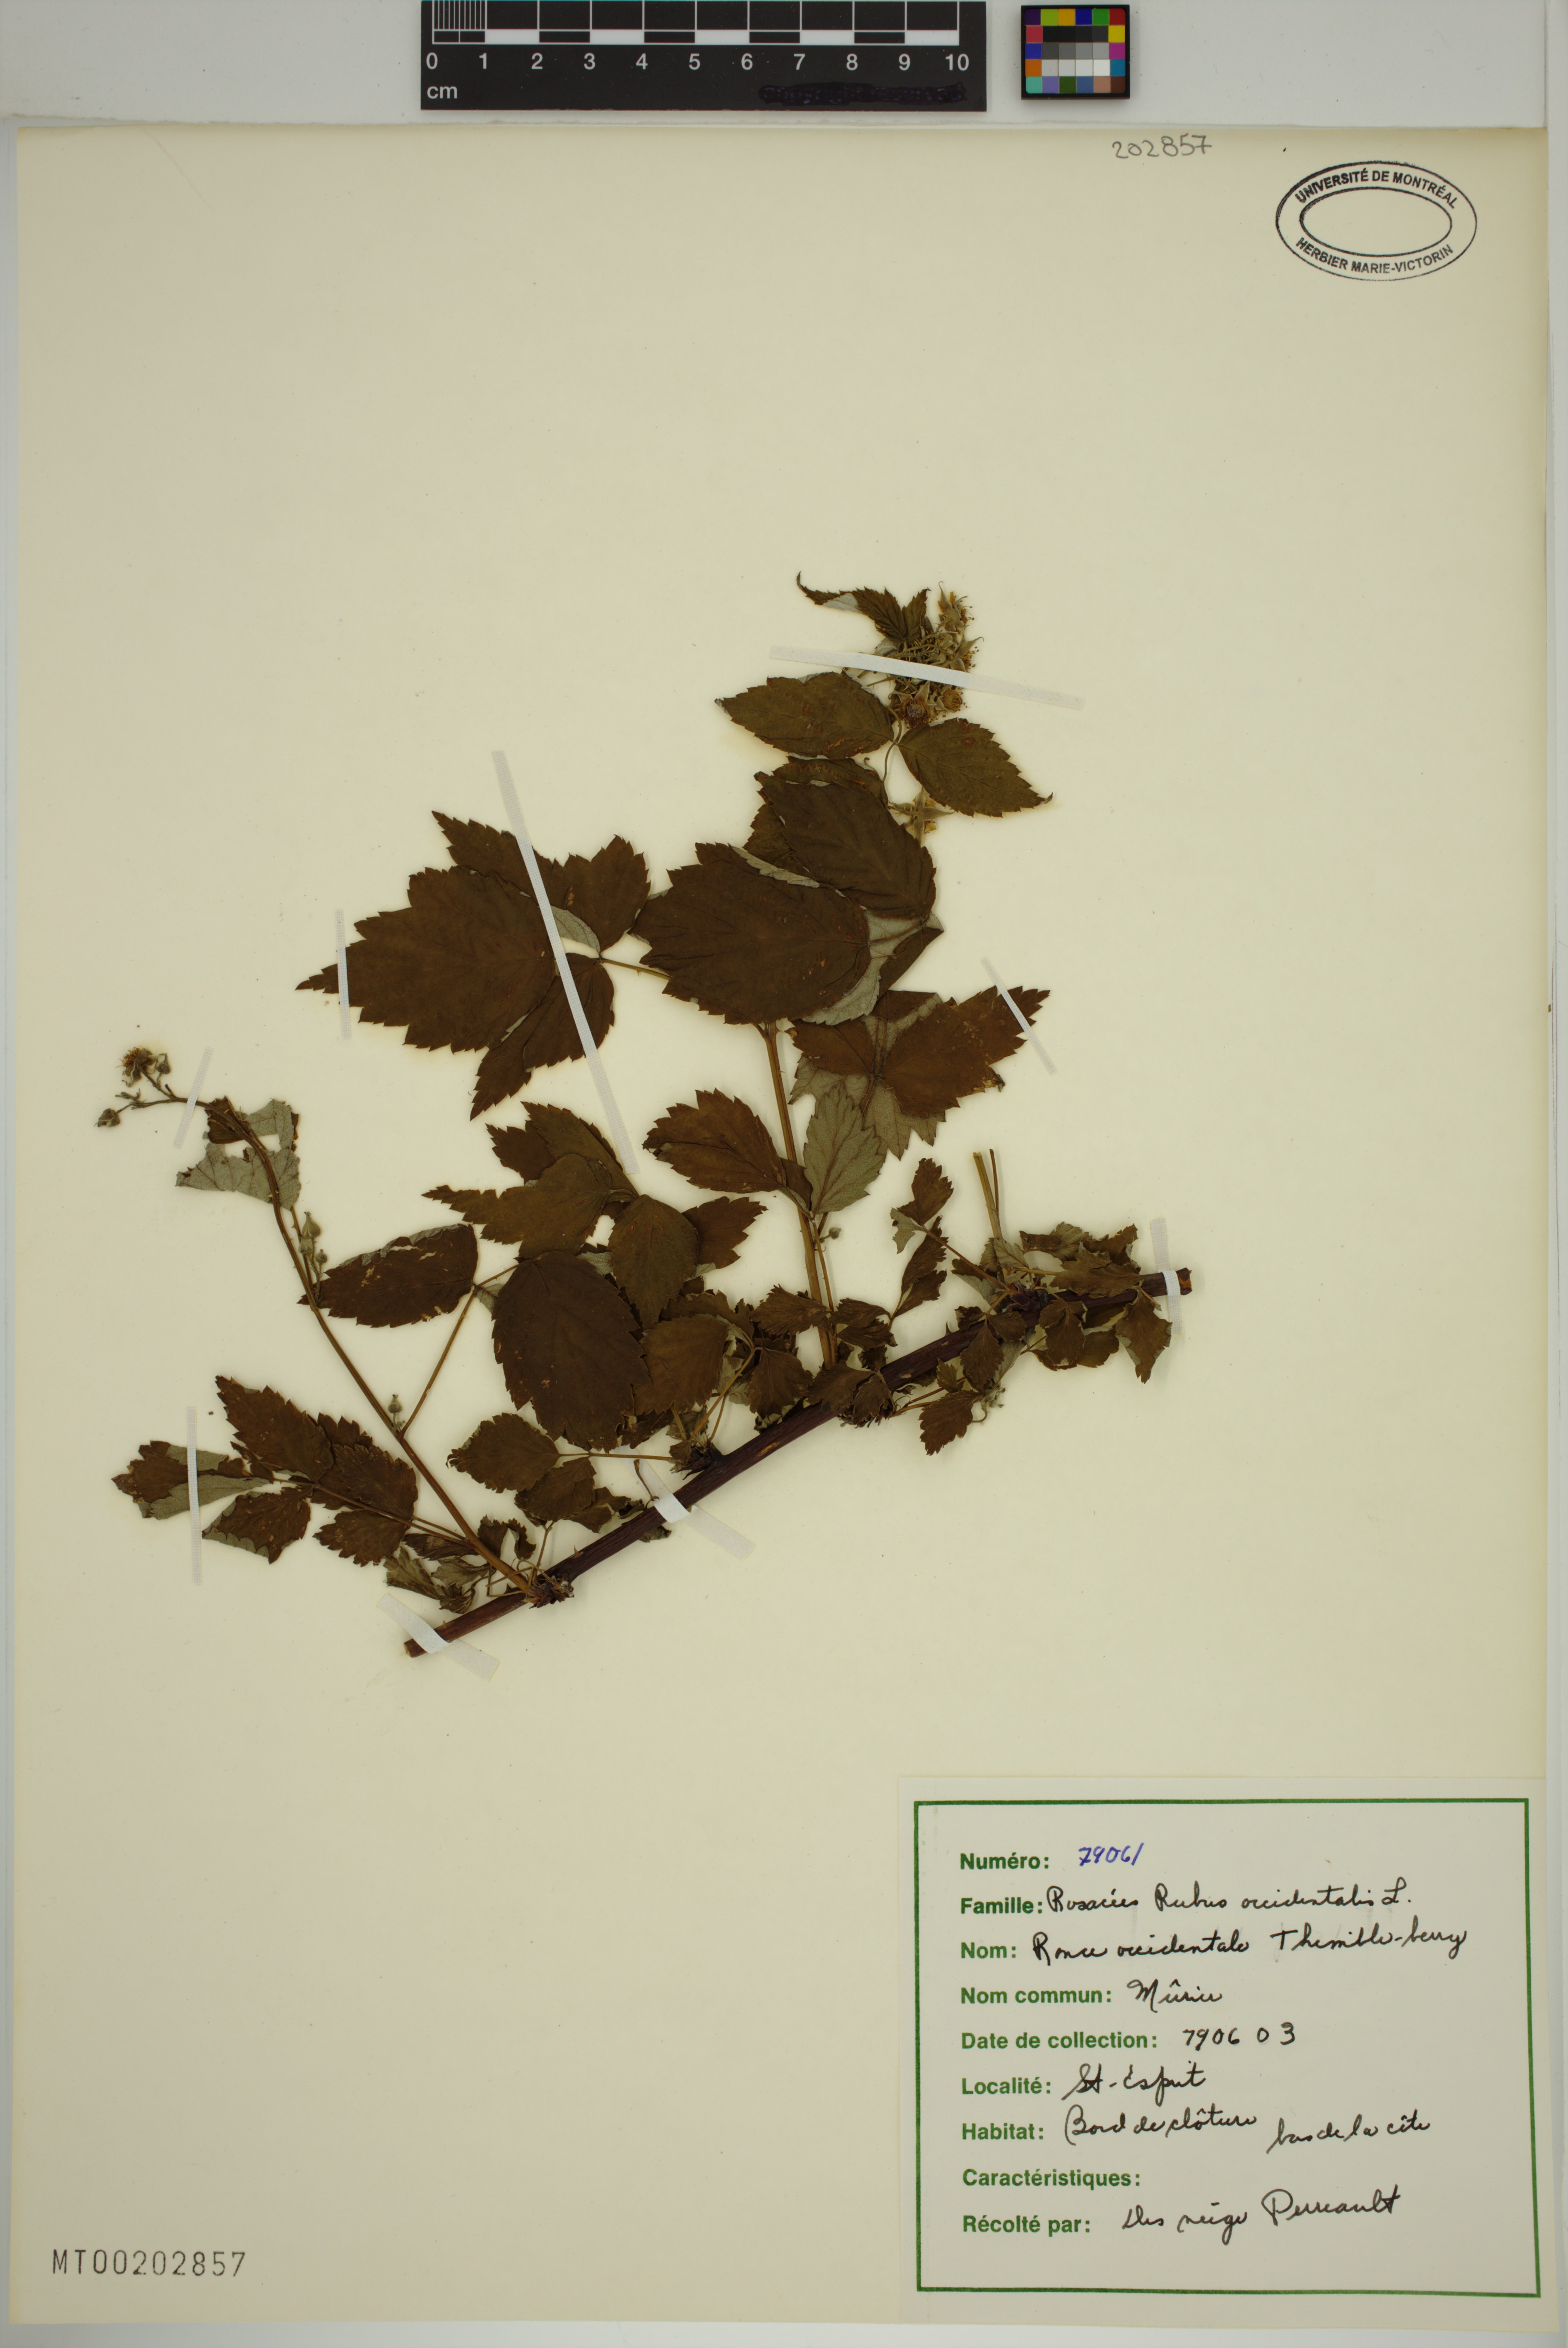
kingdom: Plantae
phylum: Tracheophyta
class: Magnoliopsida
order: Rosales
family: Rosaceae
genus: Rubus
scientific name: Rubus occidentalis
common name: Black raspberry
